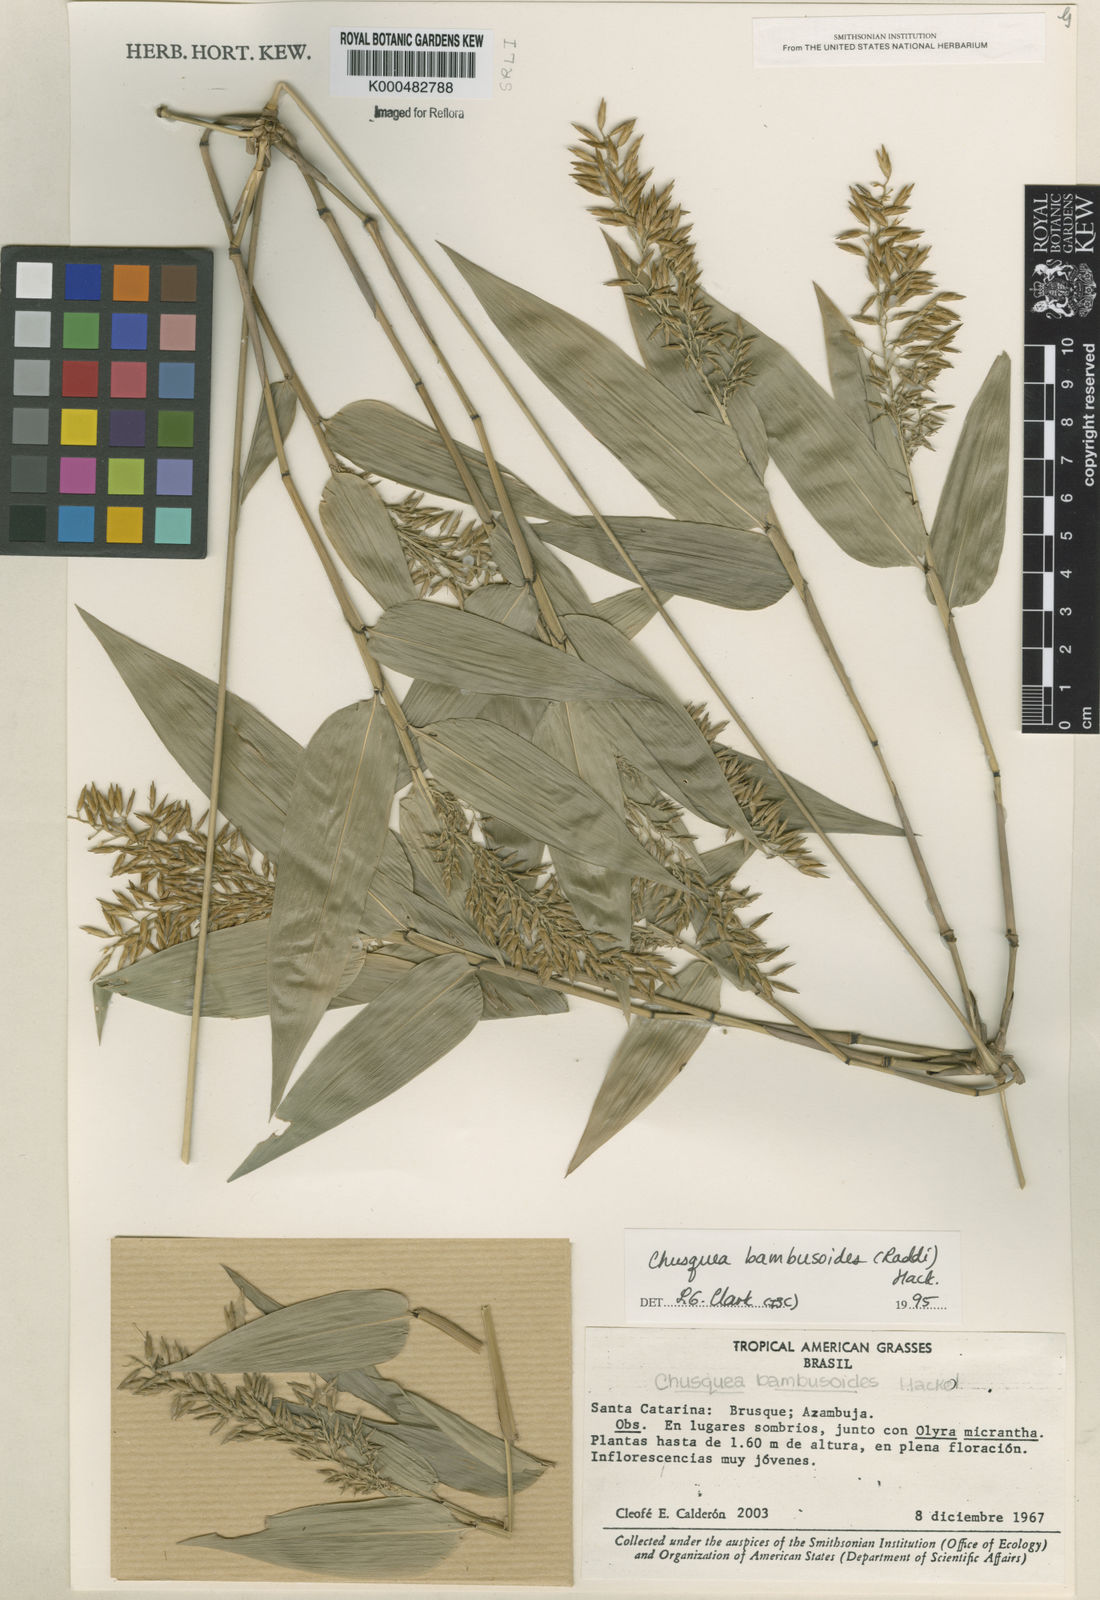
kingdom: Plantae
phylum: Tracheophyta
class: Liliopsida
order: Poales
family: Poaceae
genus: Chusquea
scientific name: Chusquea bambusoides
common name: Brazil scrambling bamboo
